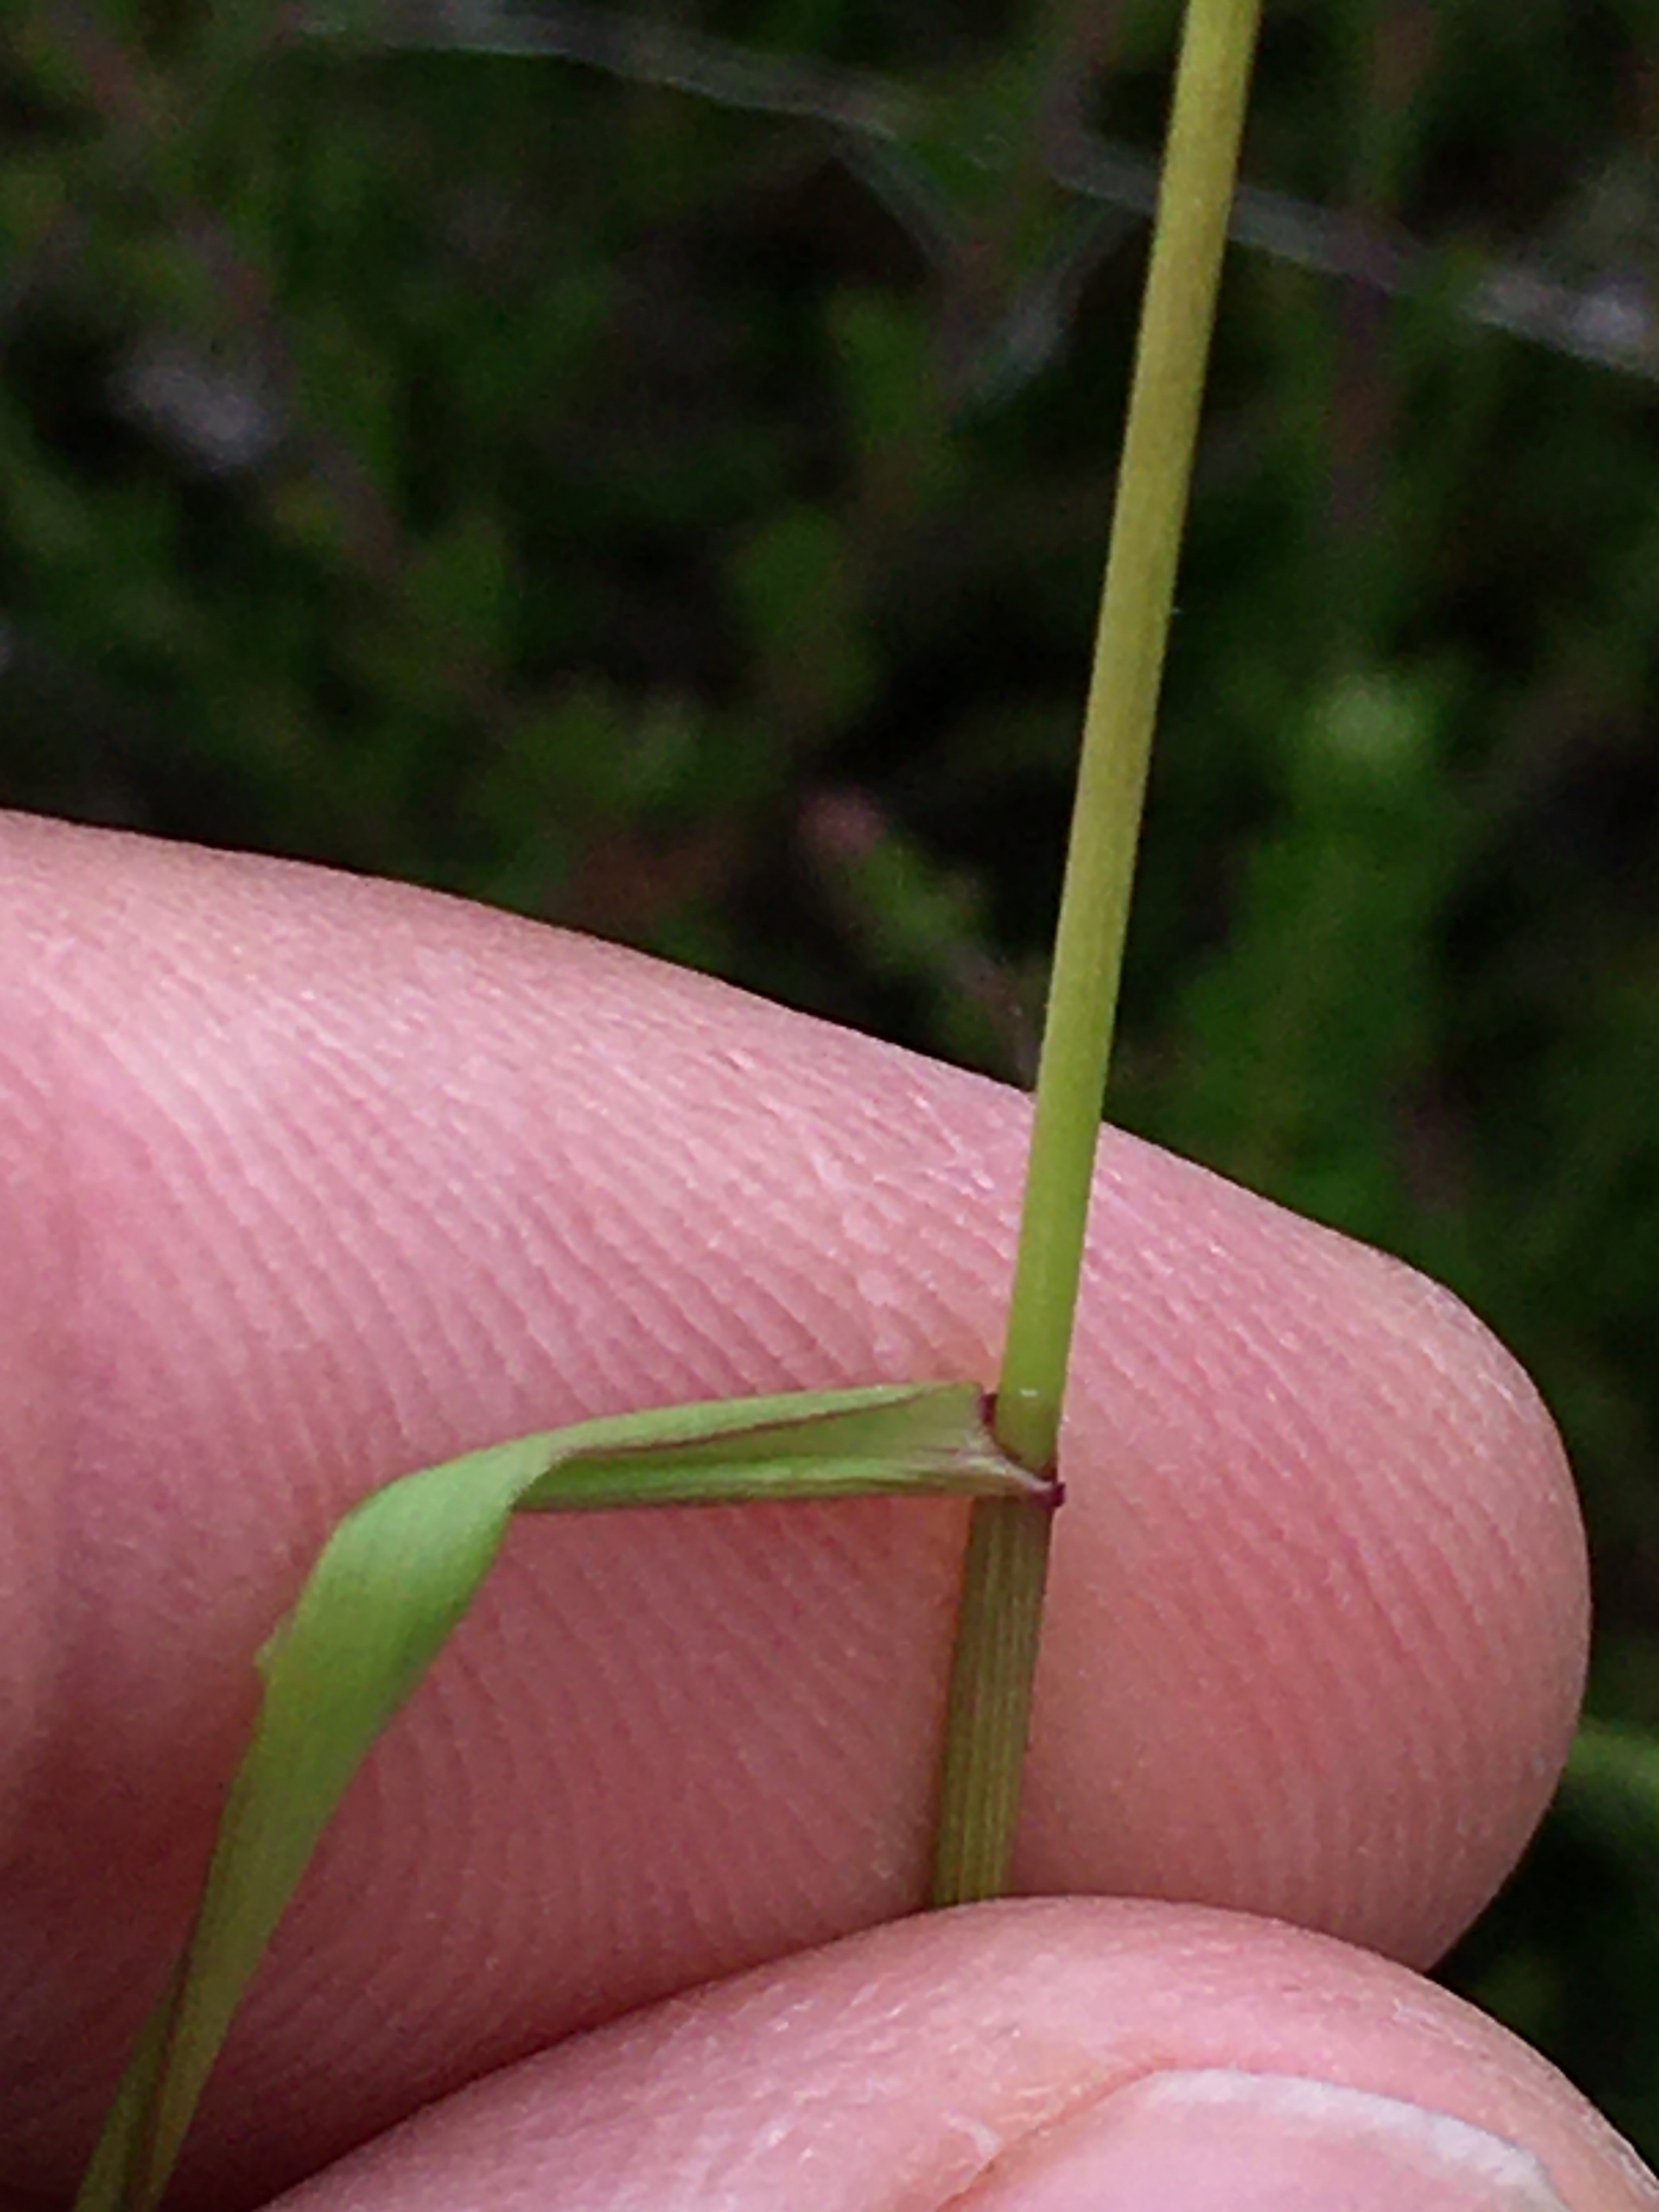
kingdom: Plantae
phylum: Tracheophyta
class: Liliopsida
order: Poales
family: Poaceae
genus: Agrostis
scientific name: Agrostis capillaris
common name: Almindelig hvene
